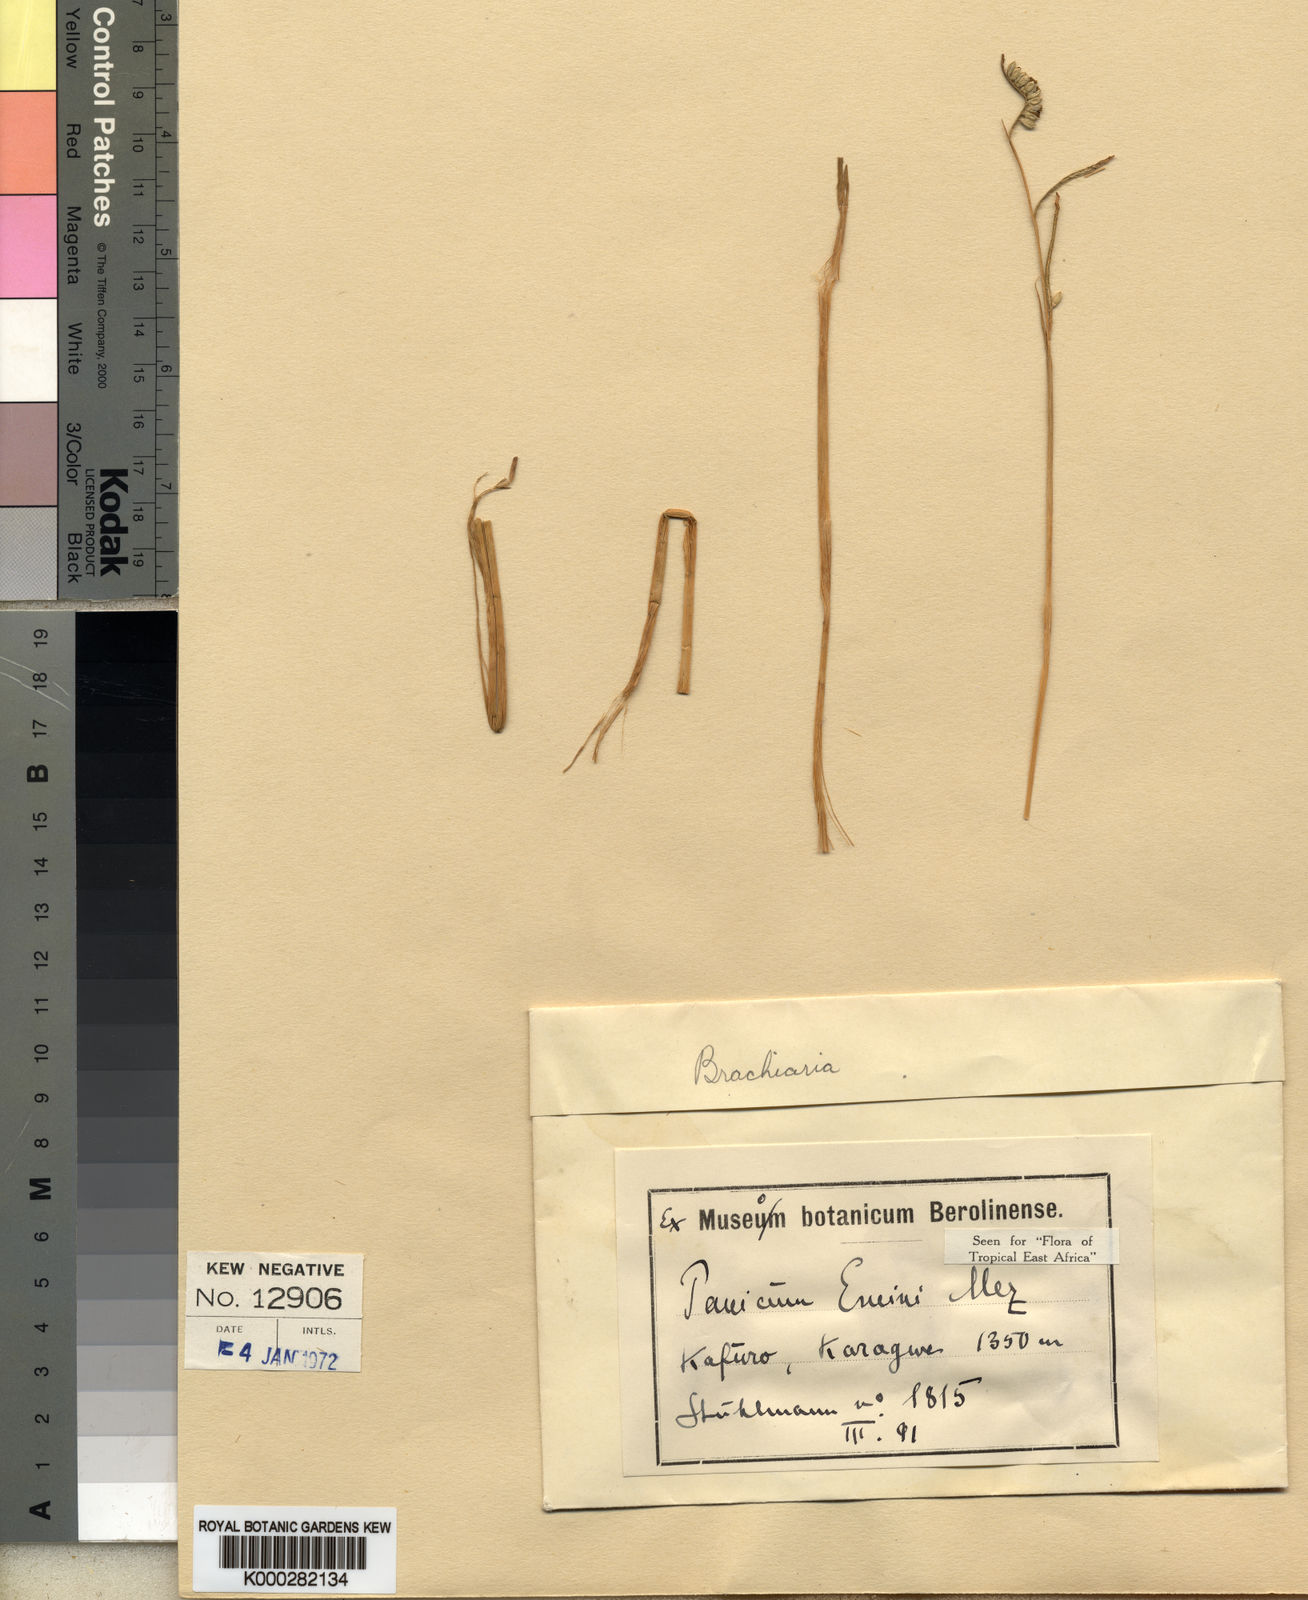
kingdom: Plantae
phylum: Tracheophyta
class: Liliopsida
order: Poales
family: Poaceae
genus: Urochloa
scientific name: Urochloa eminii
